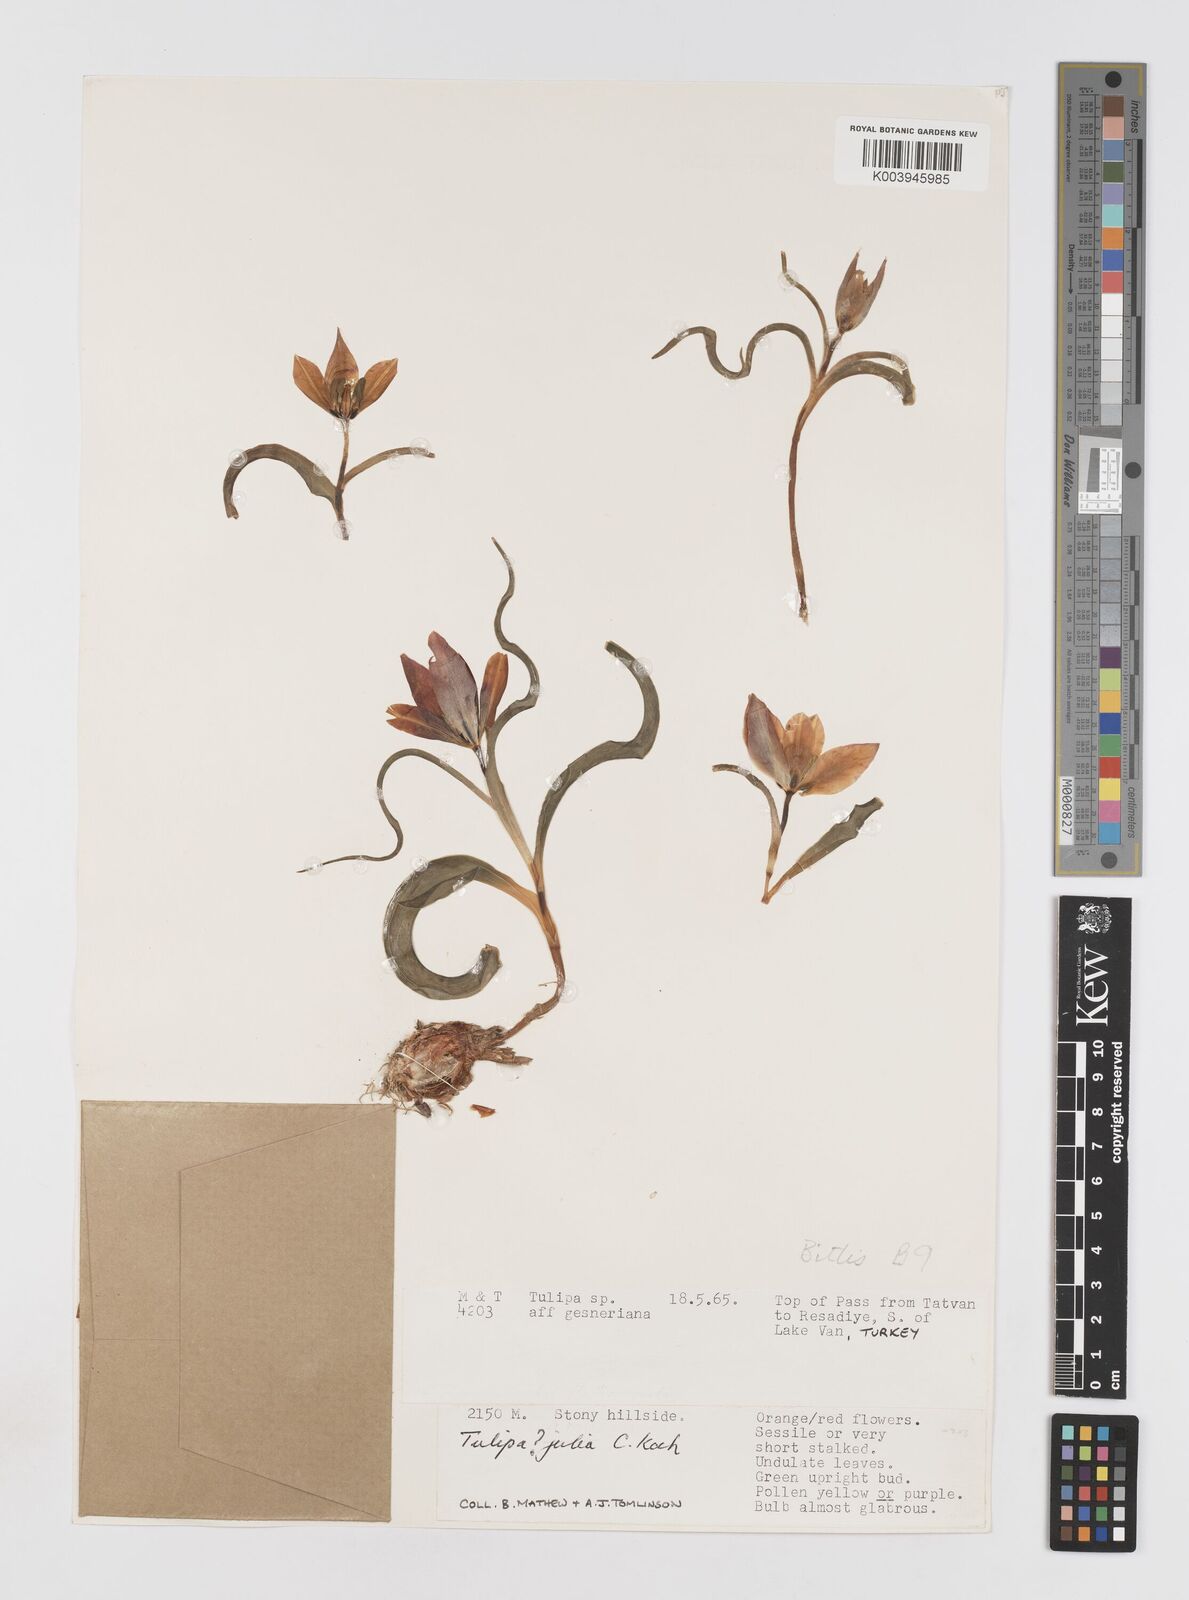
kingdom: Plantae
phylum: Tracheophyta
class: Liliopsida
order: Liliales
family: Liliaceae
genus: Tulipa
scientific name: Tulipa julia
